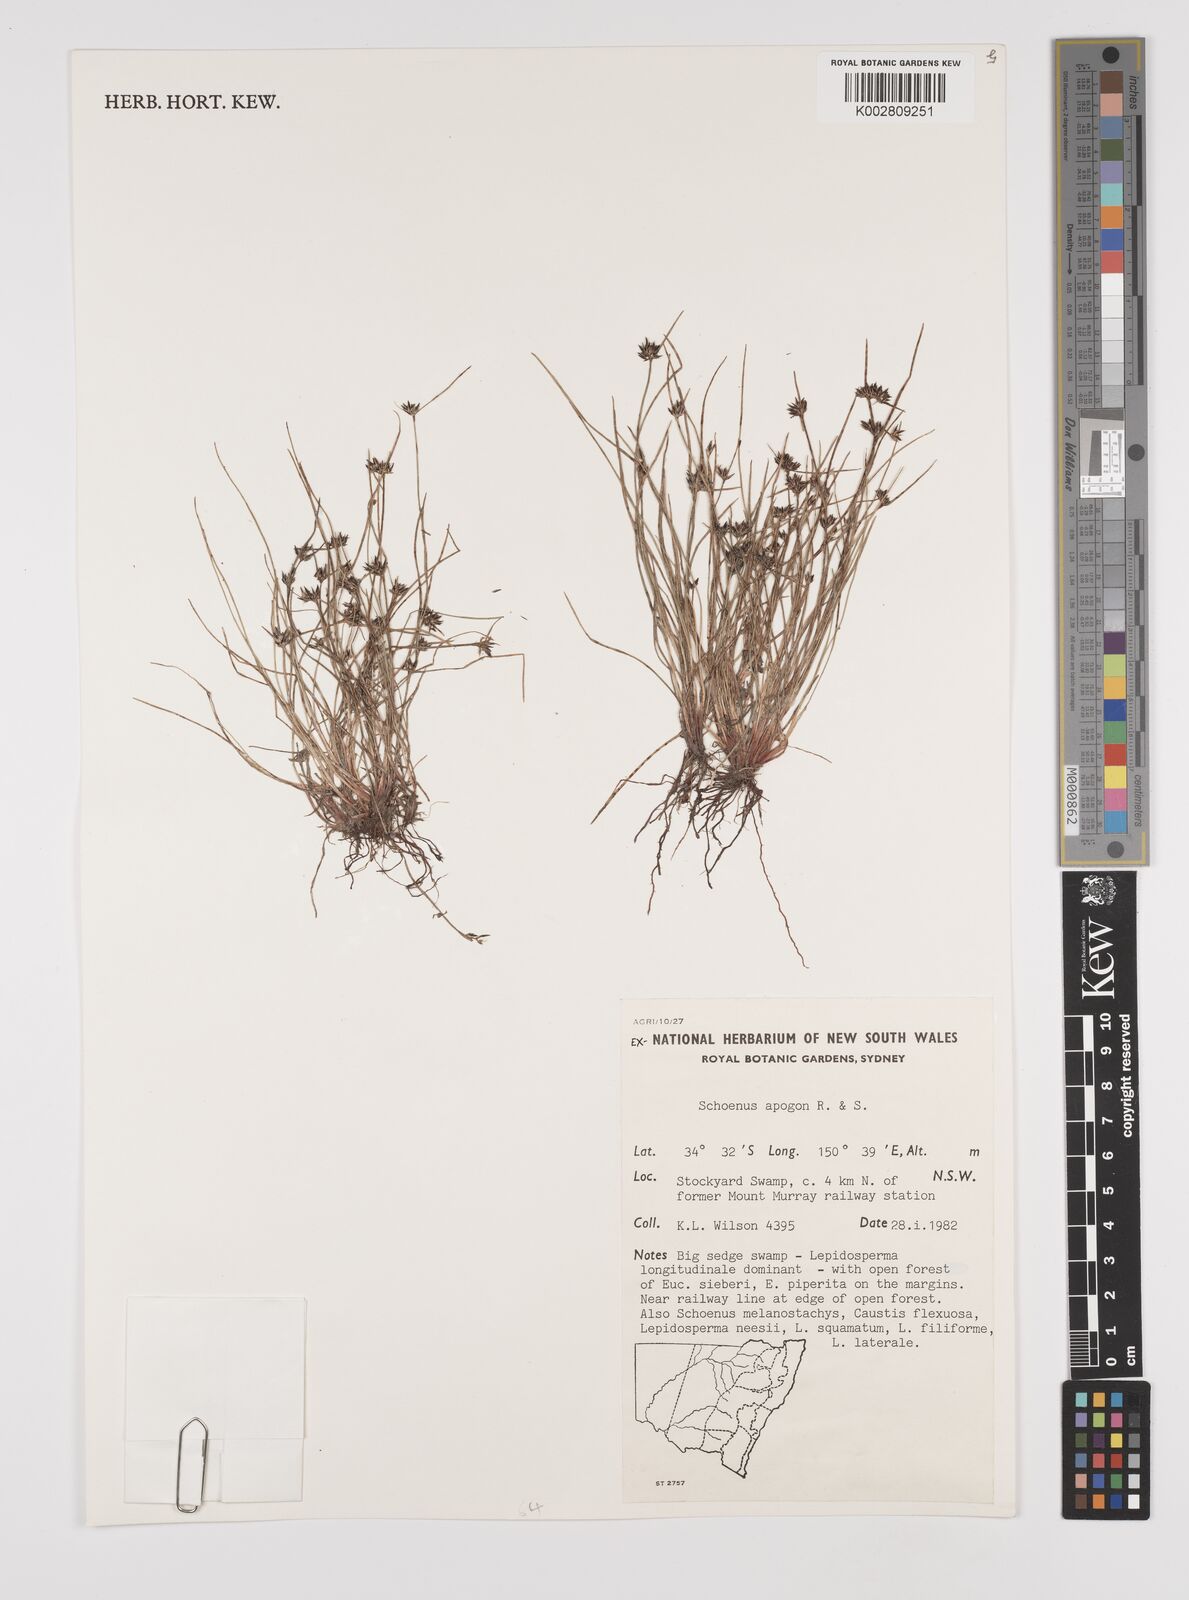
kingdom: Plantae
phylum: Tracheophyta
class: Liliopsida
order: Poales
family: Cyperaceae
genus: Schoenus
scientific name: Schoenus apogon
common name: Smooth bogrush
